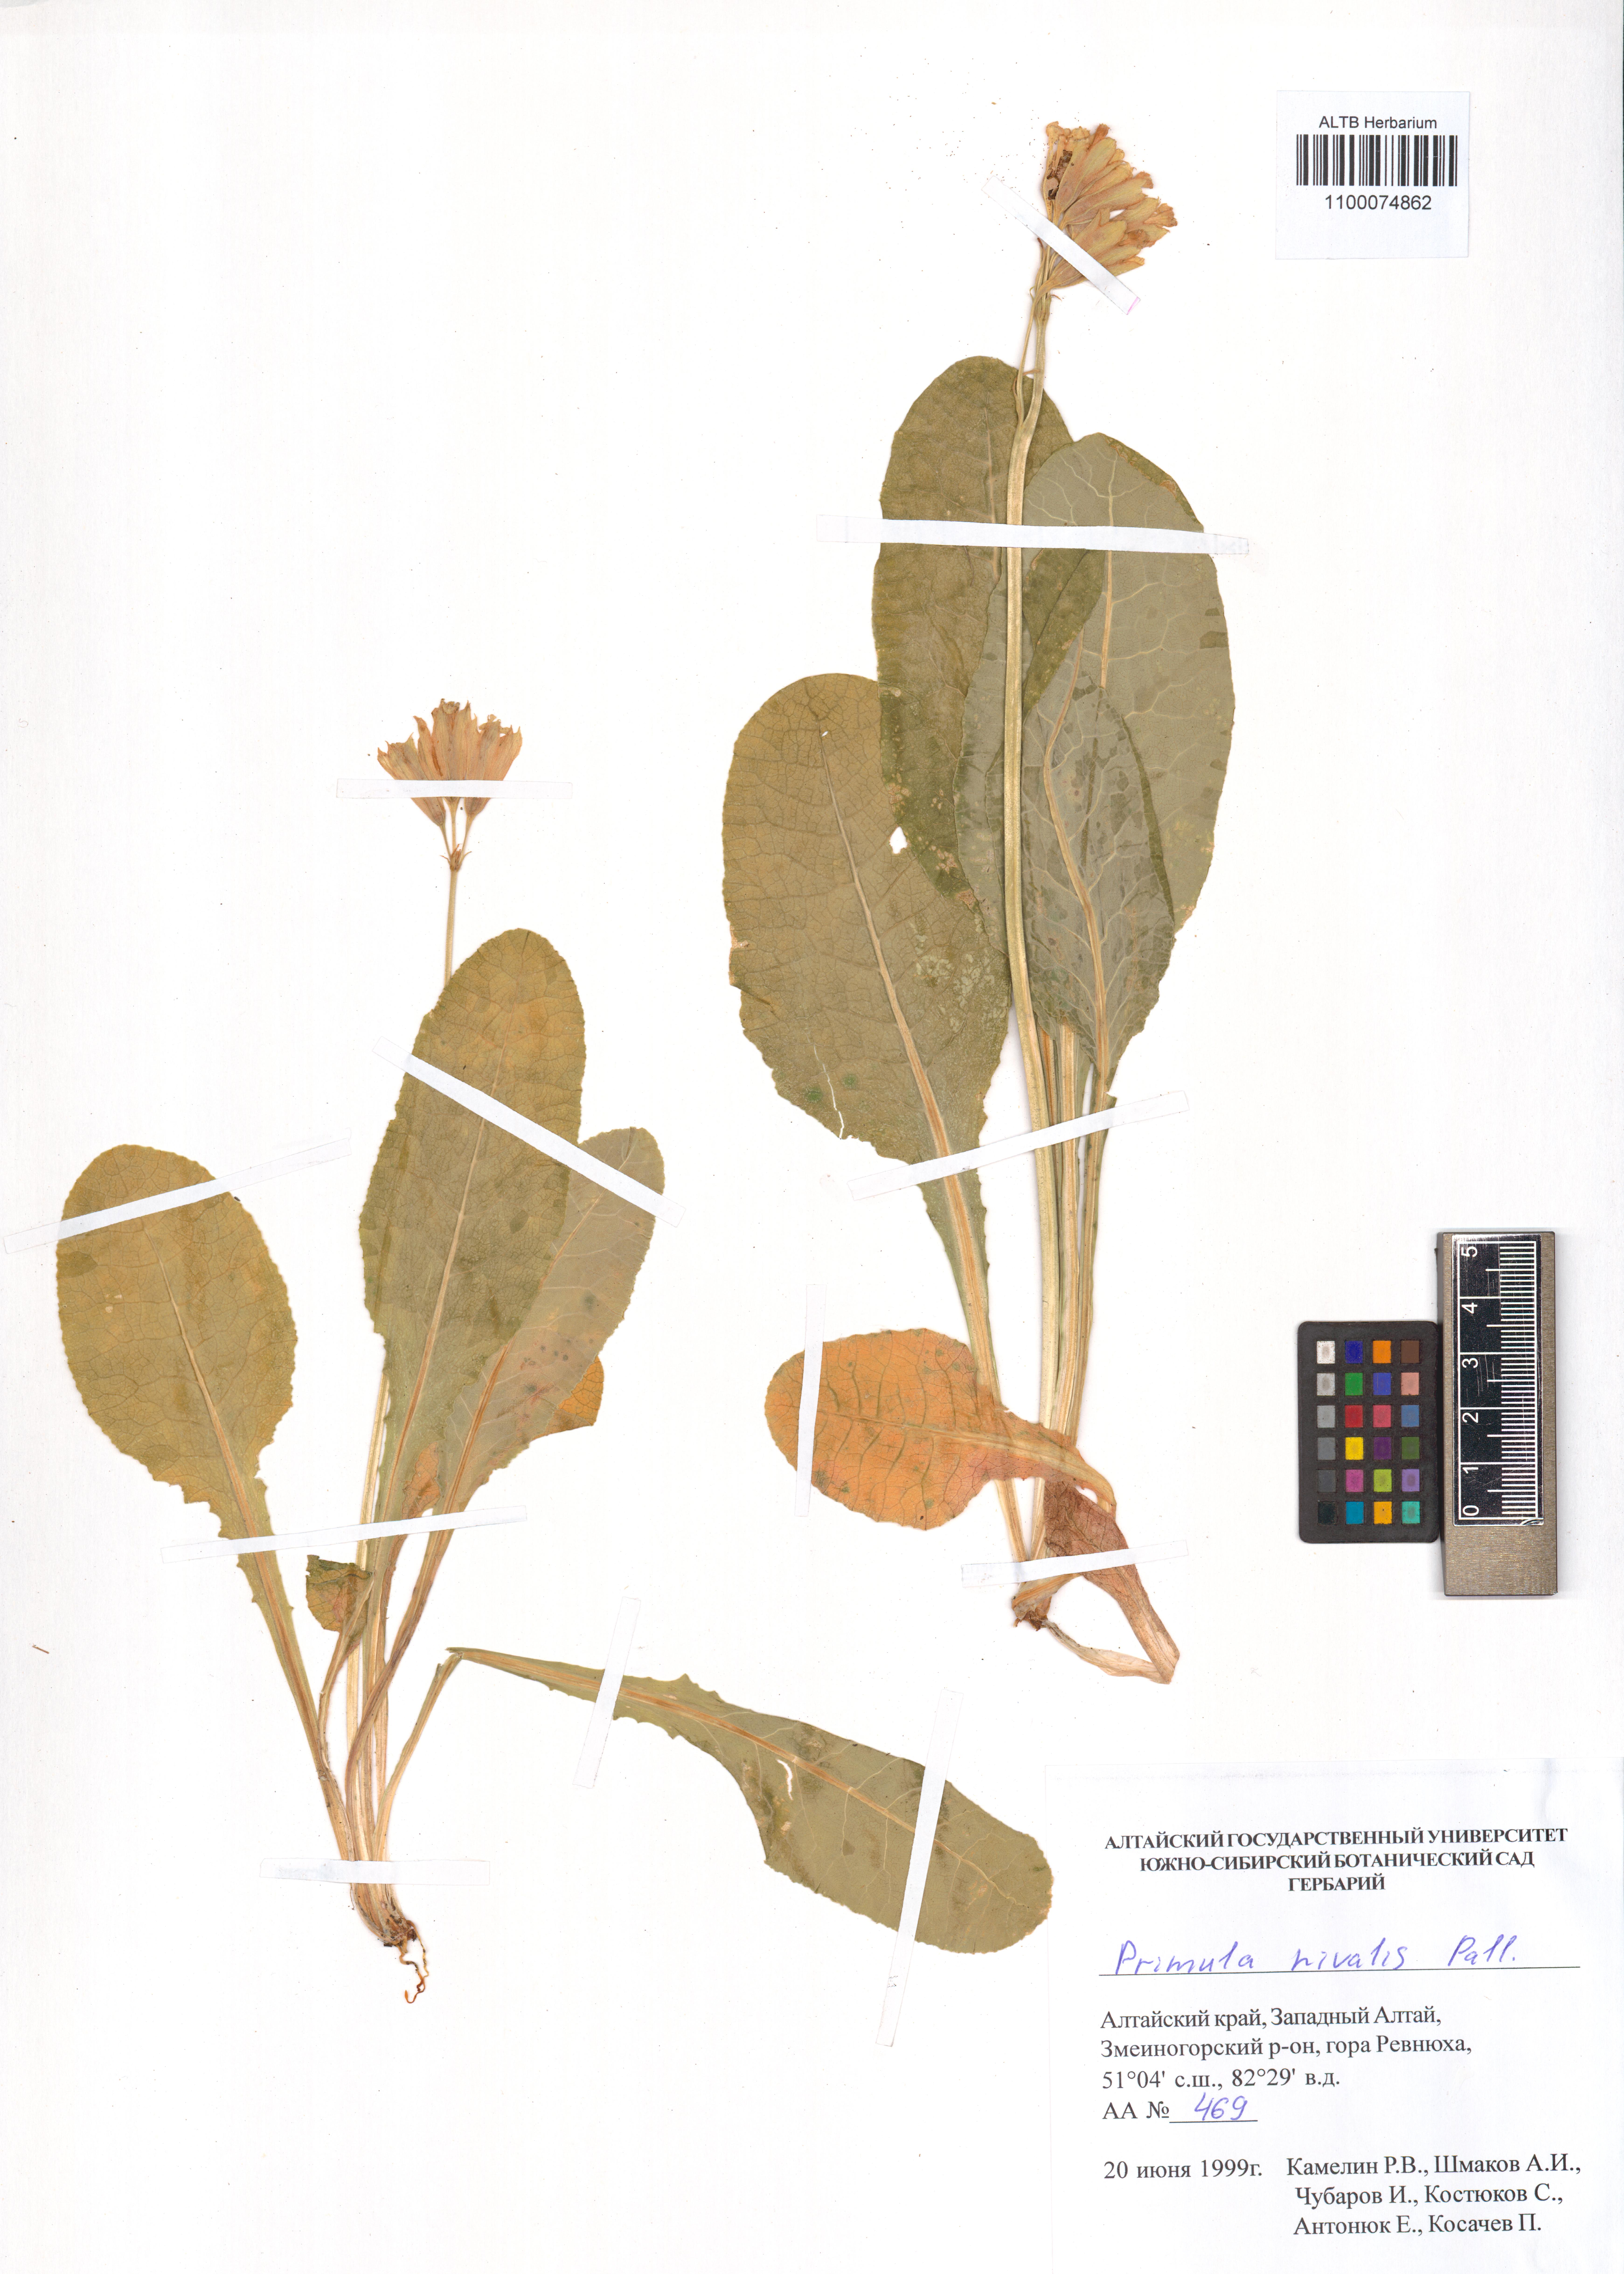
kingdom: Plantae
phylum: Tracheophyta
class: Magnoliopsida
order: Ericales
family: Primulaceae
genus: Primula
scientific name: Primula nivalis
